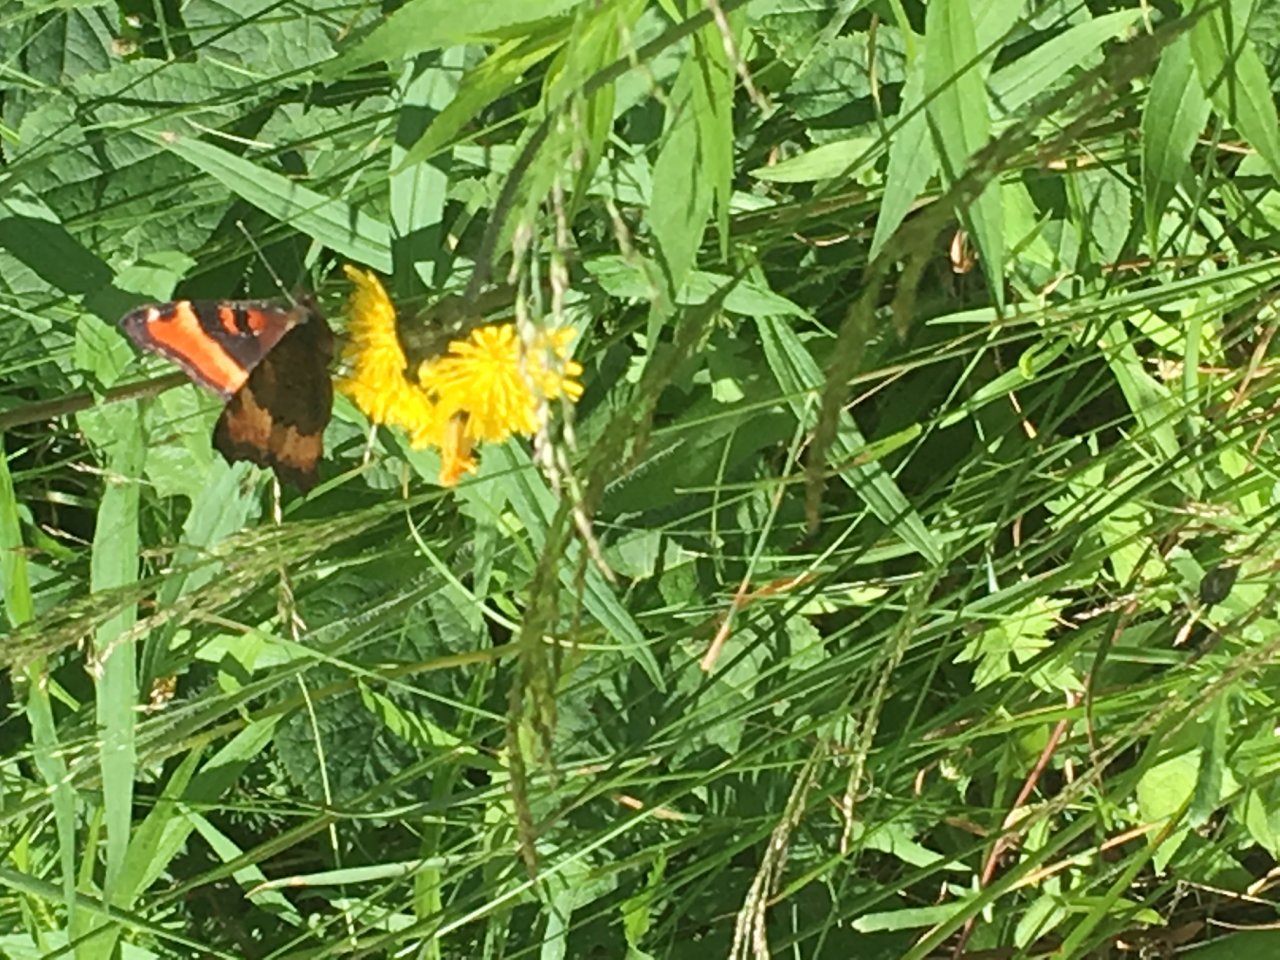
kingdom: Animalia
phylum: Arthropoda
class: Insecta
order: Lepidoptera
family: Nymphalidae
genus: Aglais
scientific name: Aglais milberti
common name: Milbert's Tortoiseshell
